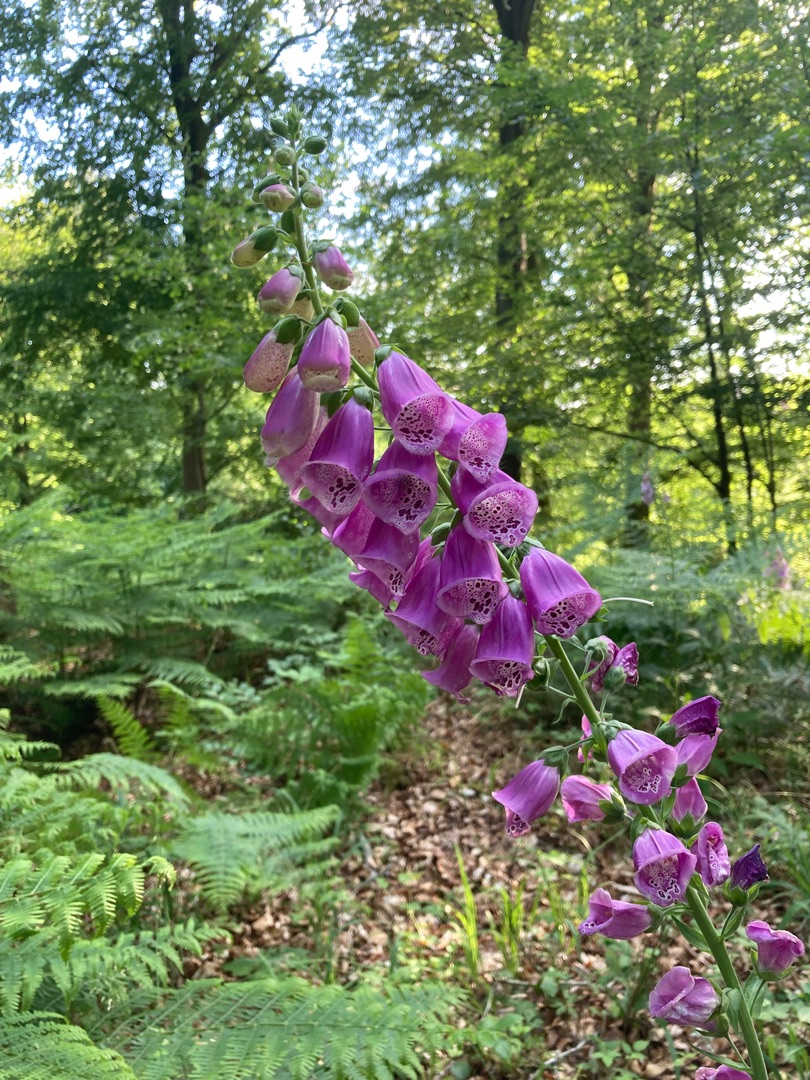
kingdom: Plantae
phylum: Tracheophyta
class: Magnoliopsida
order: Lamiales
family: Plantaginaceae
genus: Digitalis
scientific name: Digitalis purpurea
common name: Almindelig fingerbøl
